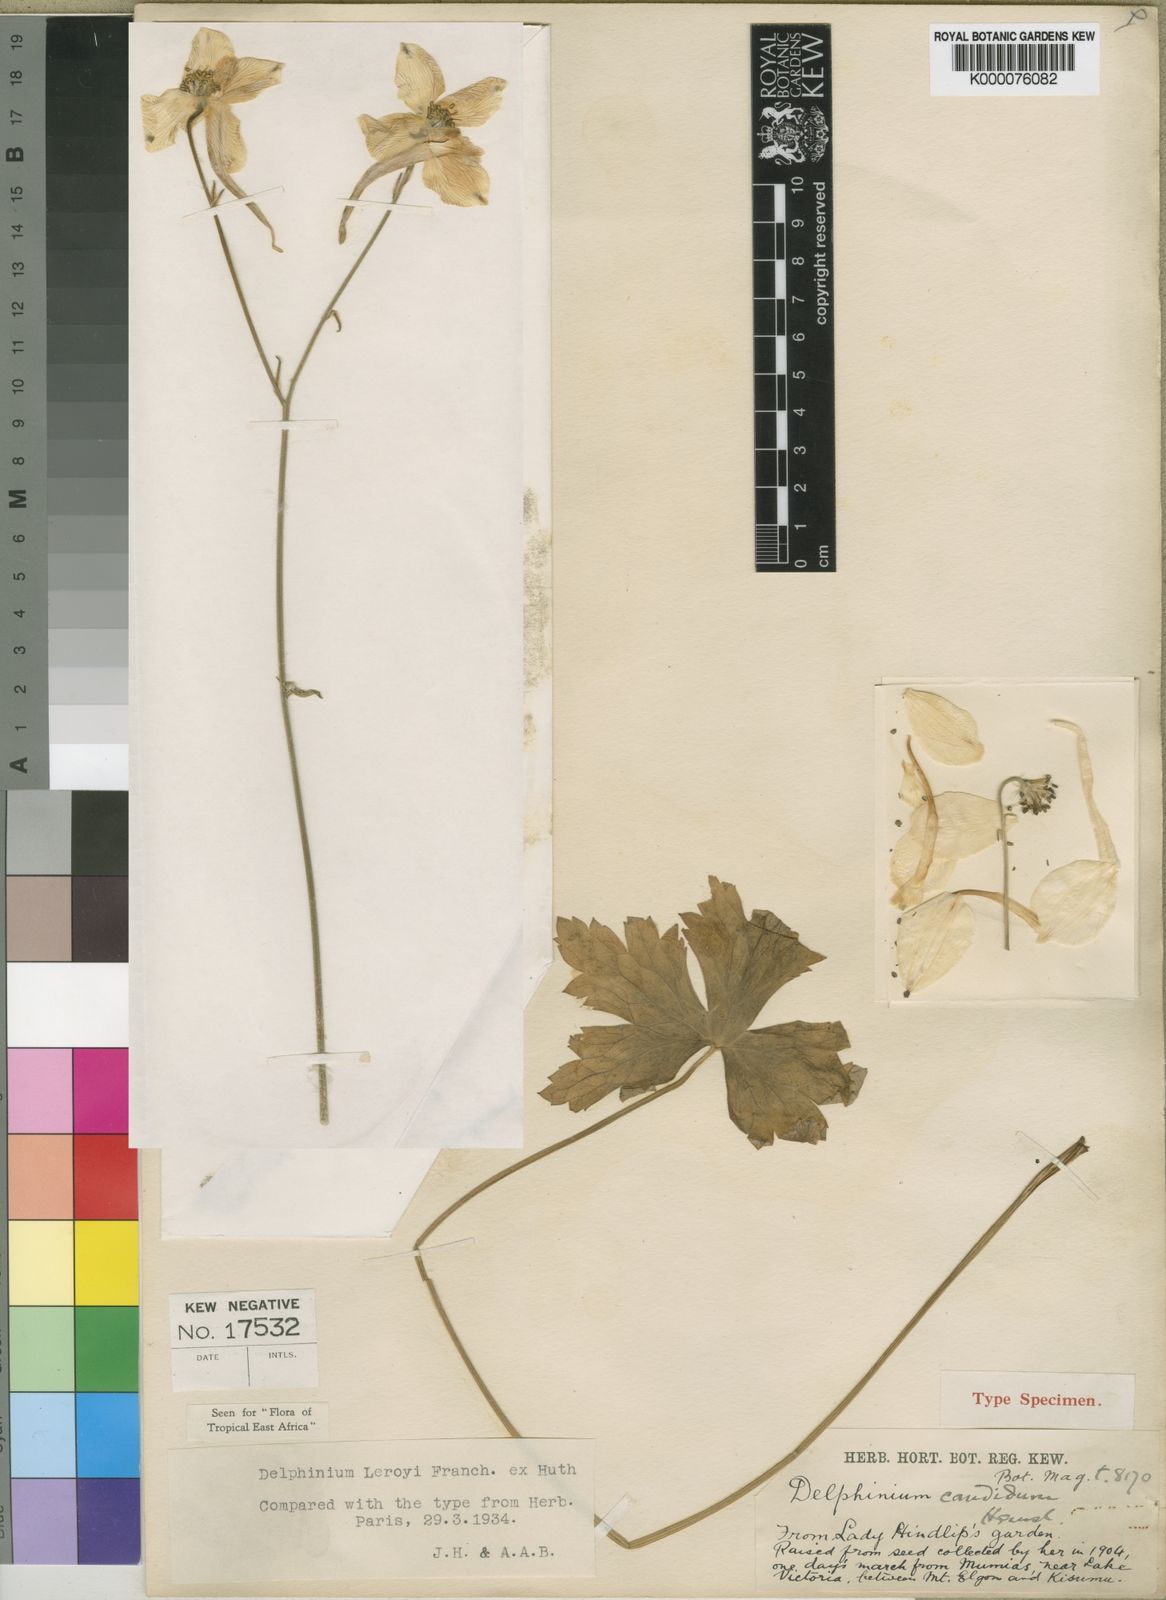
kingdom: Plantae
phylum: Tracheophyta
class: Magnoliopsida
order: Ranunculales
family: Ranunculaceae
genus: Delphinium
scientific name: Delphinium leroyi
